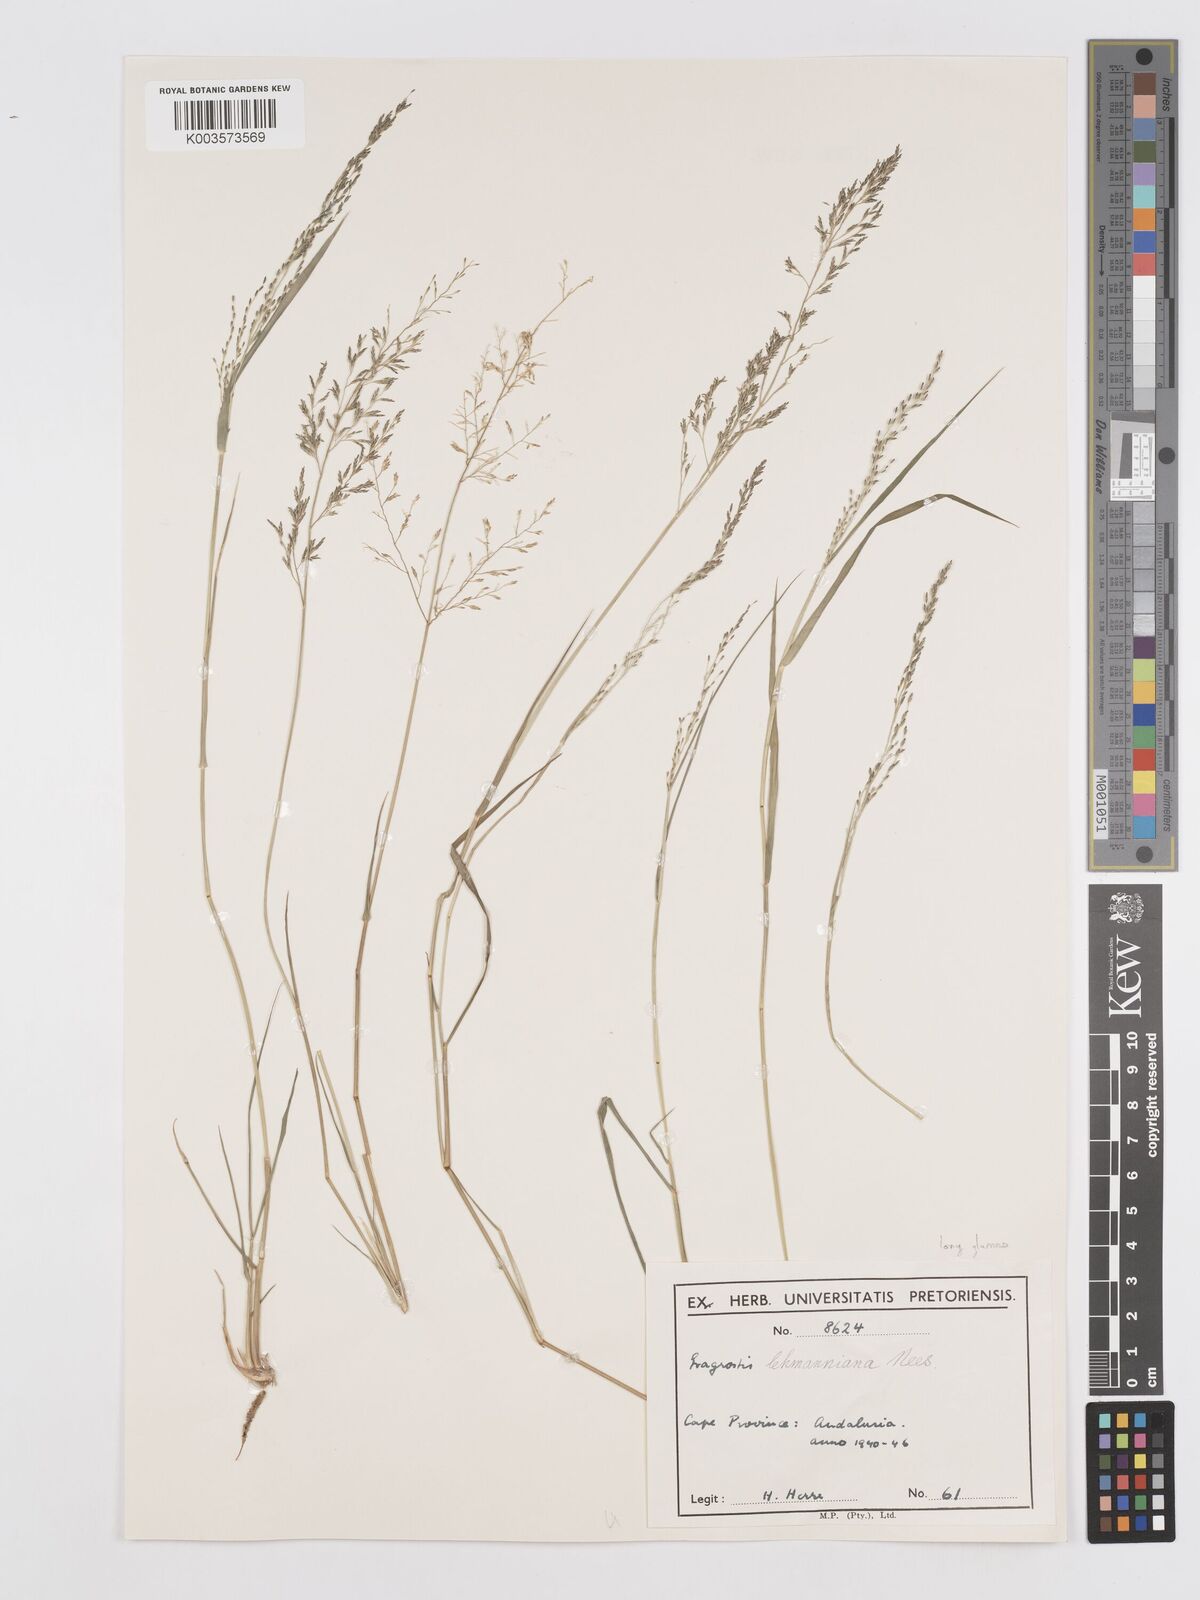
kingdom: Plantae
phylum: Tracheophyta
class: Liliopsida
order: Poales
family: Poaceae
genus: Eragrostis
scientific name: Eragrostis lehmanniana
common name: Lehmann lovegrass
